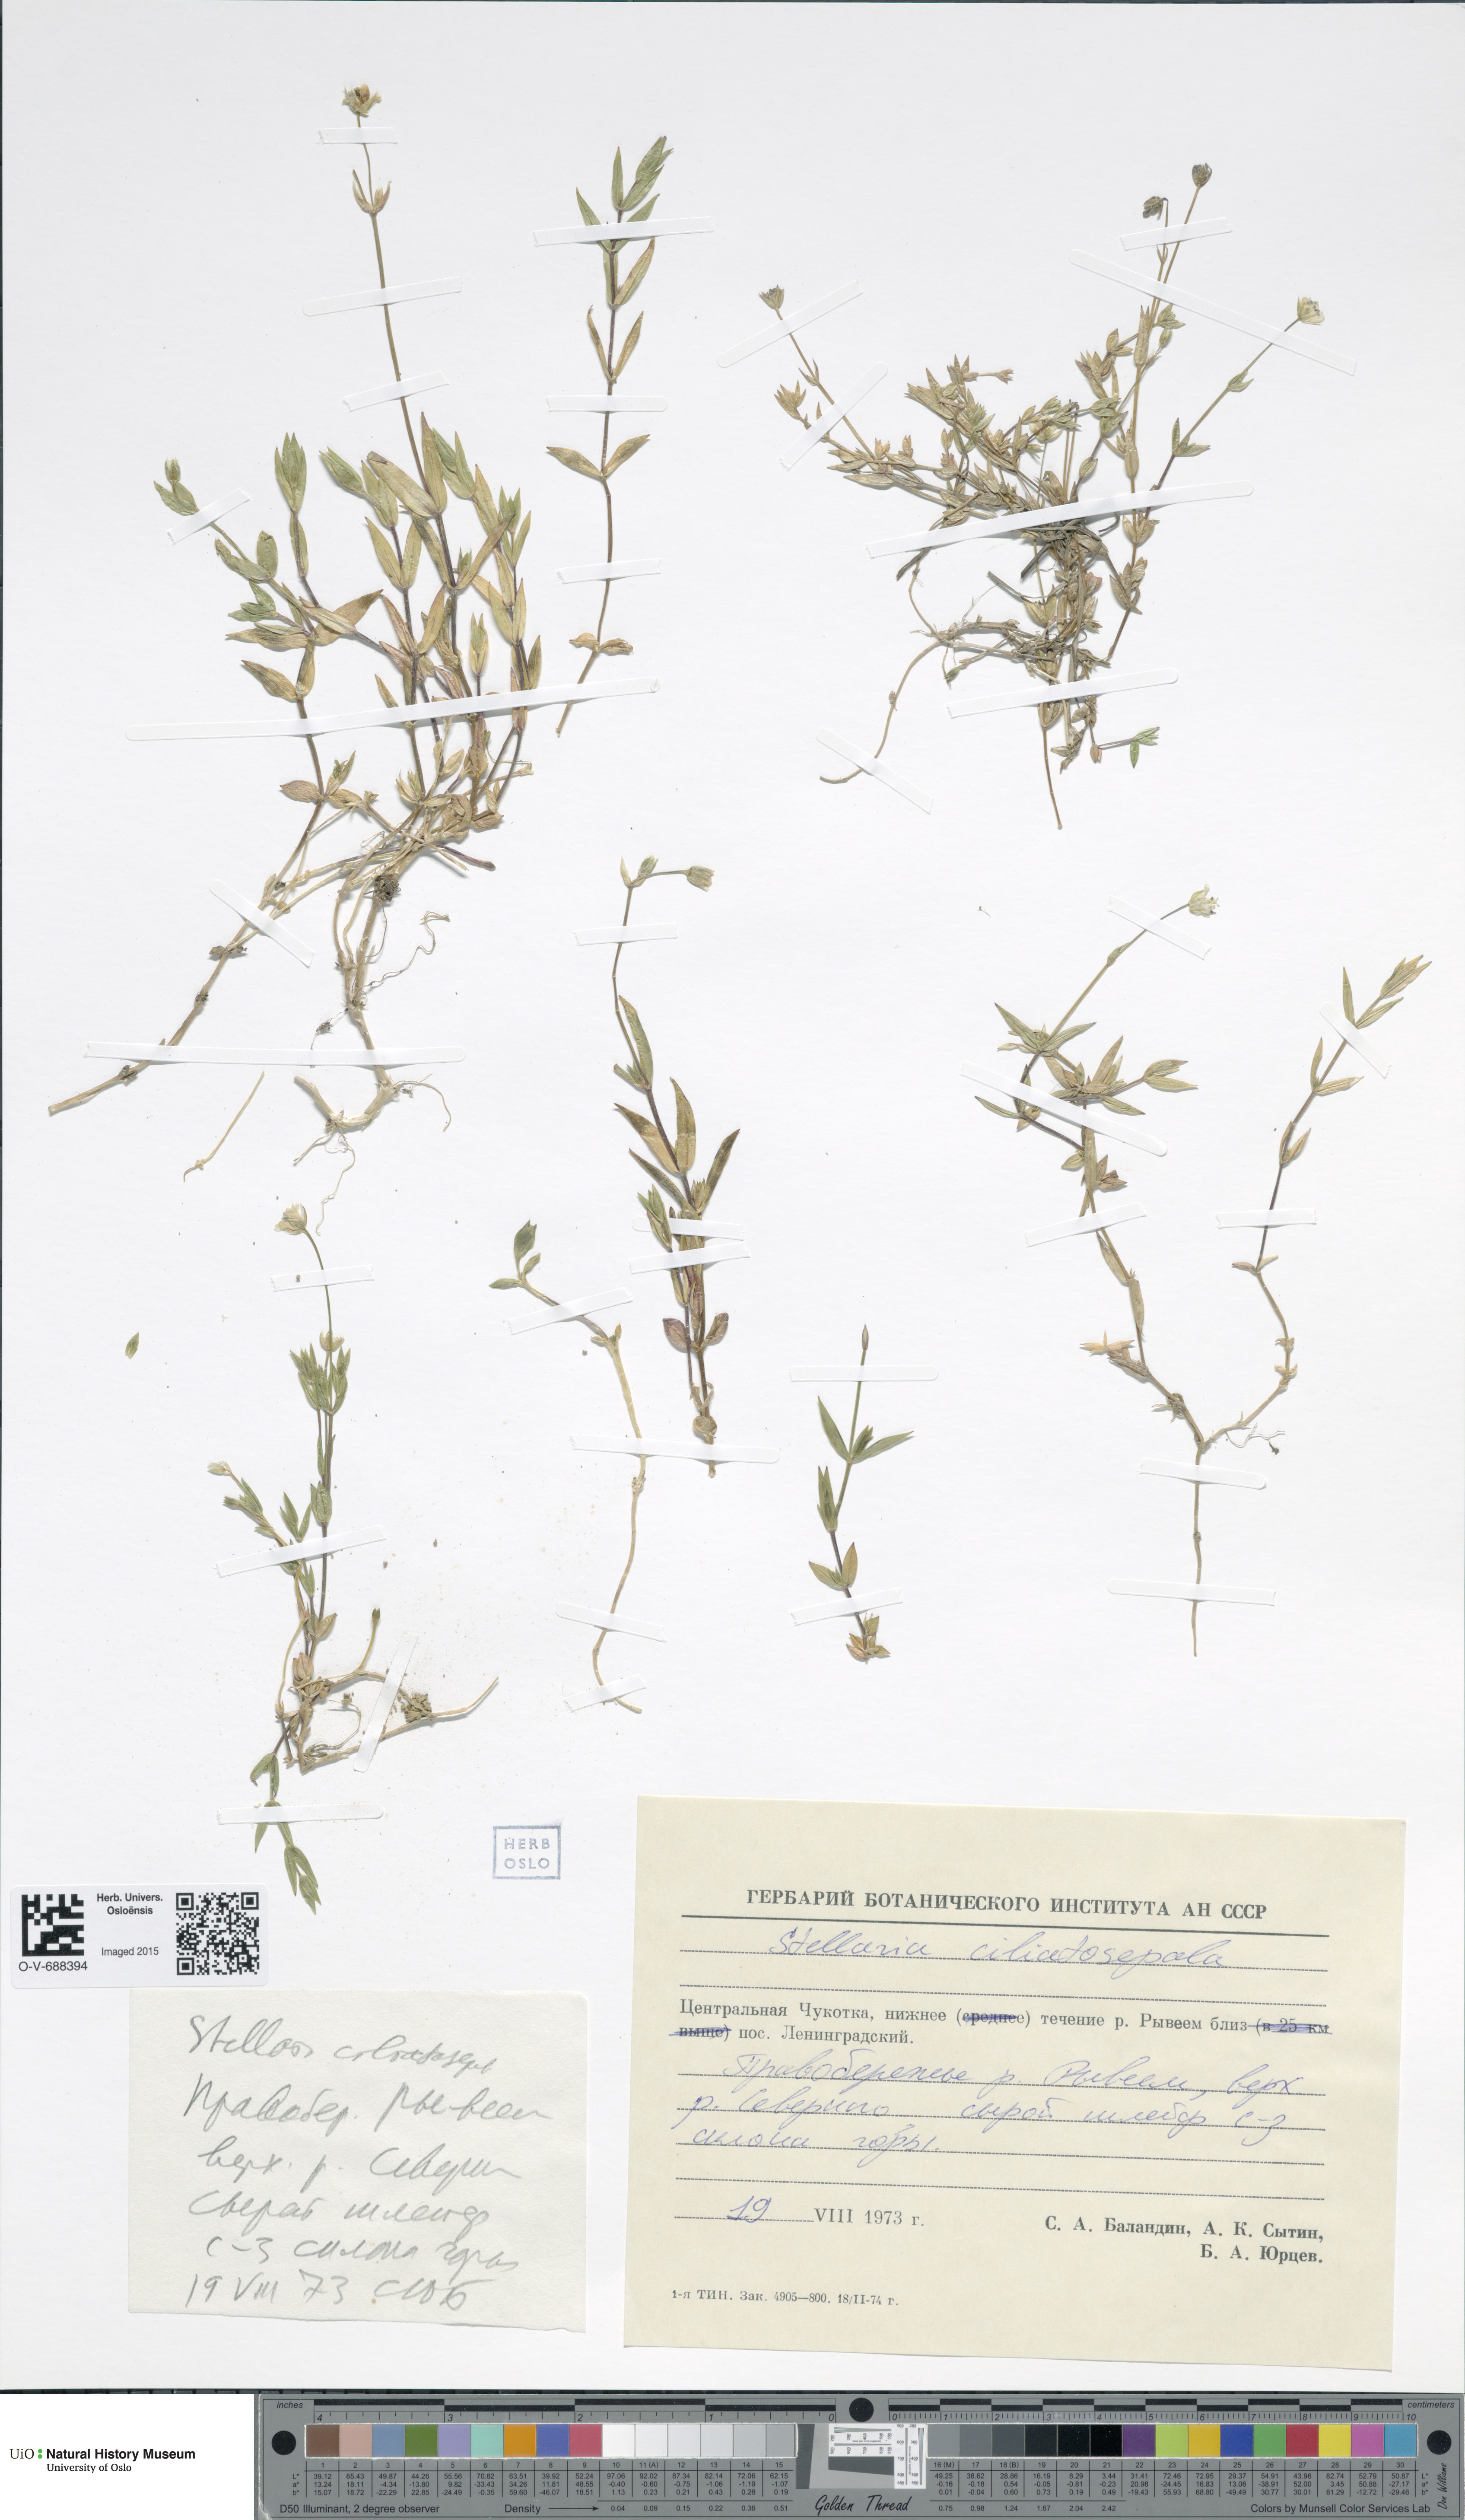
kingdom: Plantae
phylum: Tracheophyta
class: Magnoliopsida
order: Caryophyllales
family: Caryophyllaceae
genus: Stellaria
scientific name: Stellaria longipes
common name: Goldie's starwort
